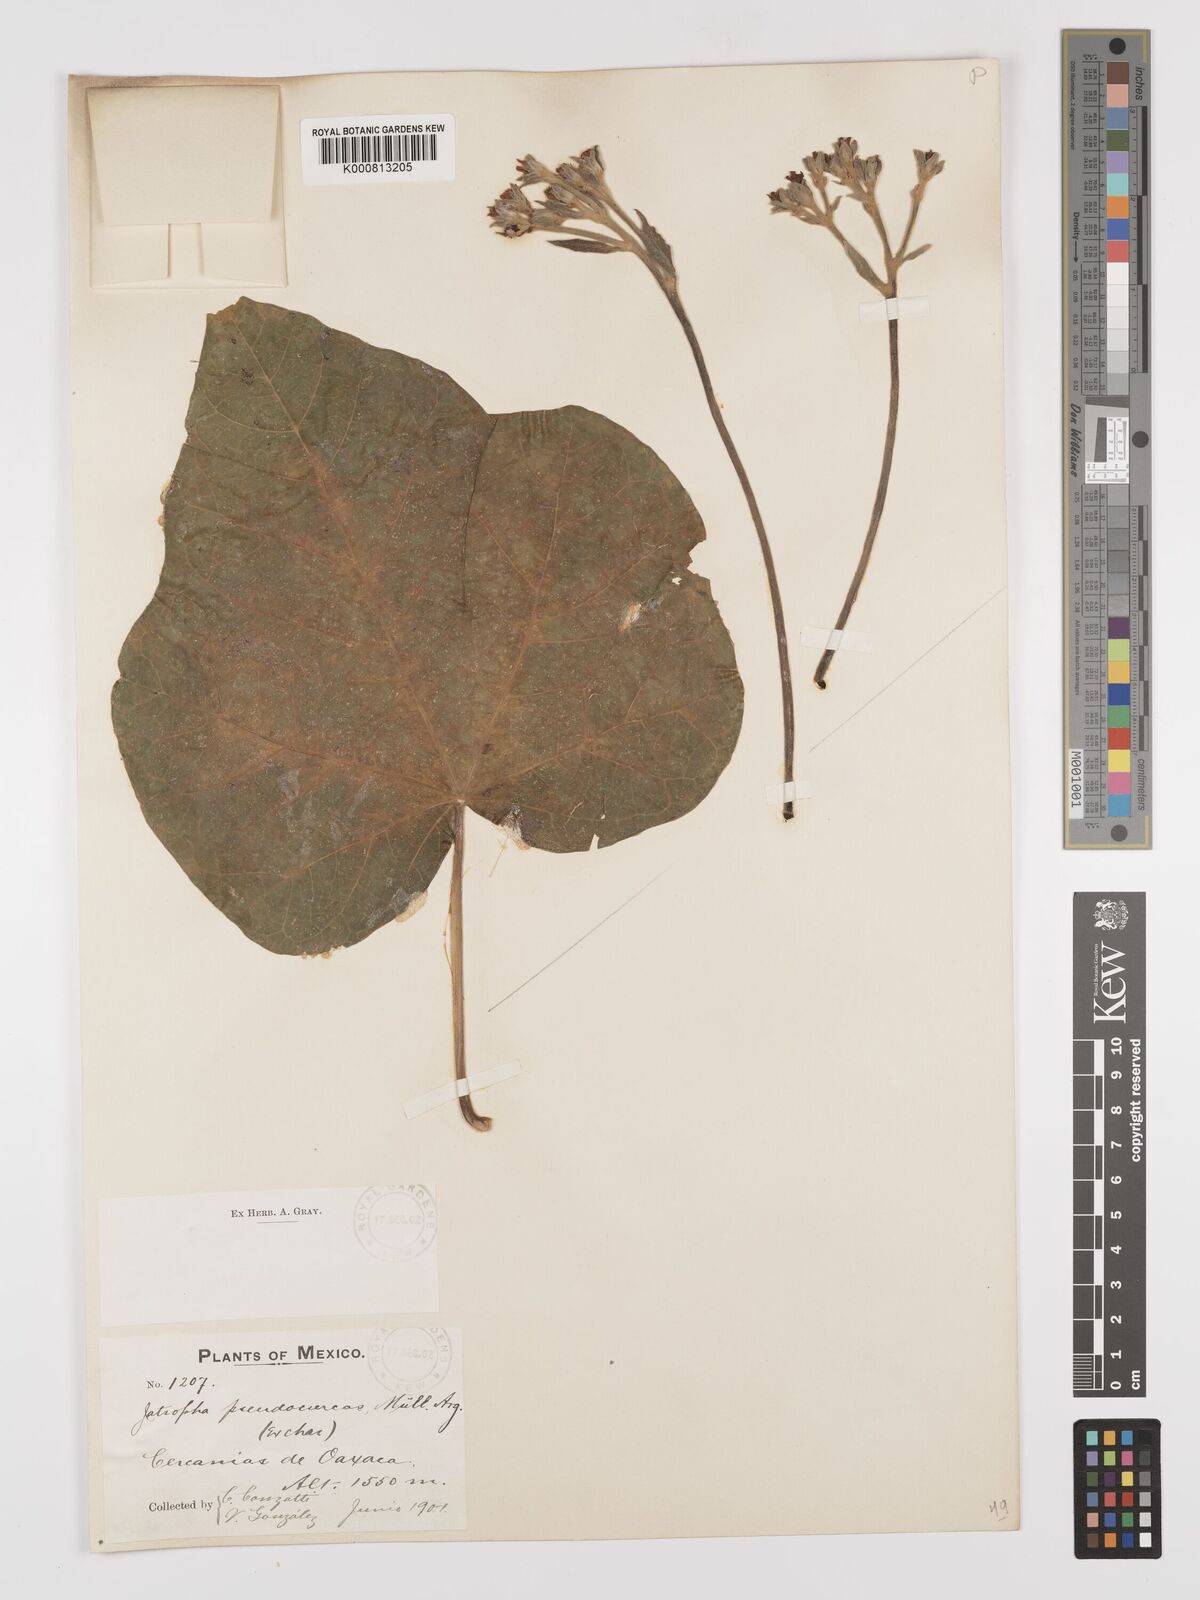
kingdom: Plantae
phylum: Tracheophyta
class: Magnoliopsida
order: Malpighiales
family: Euphorbiaceae
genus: Jatropha
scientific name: Jatropha
